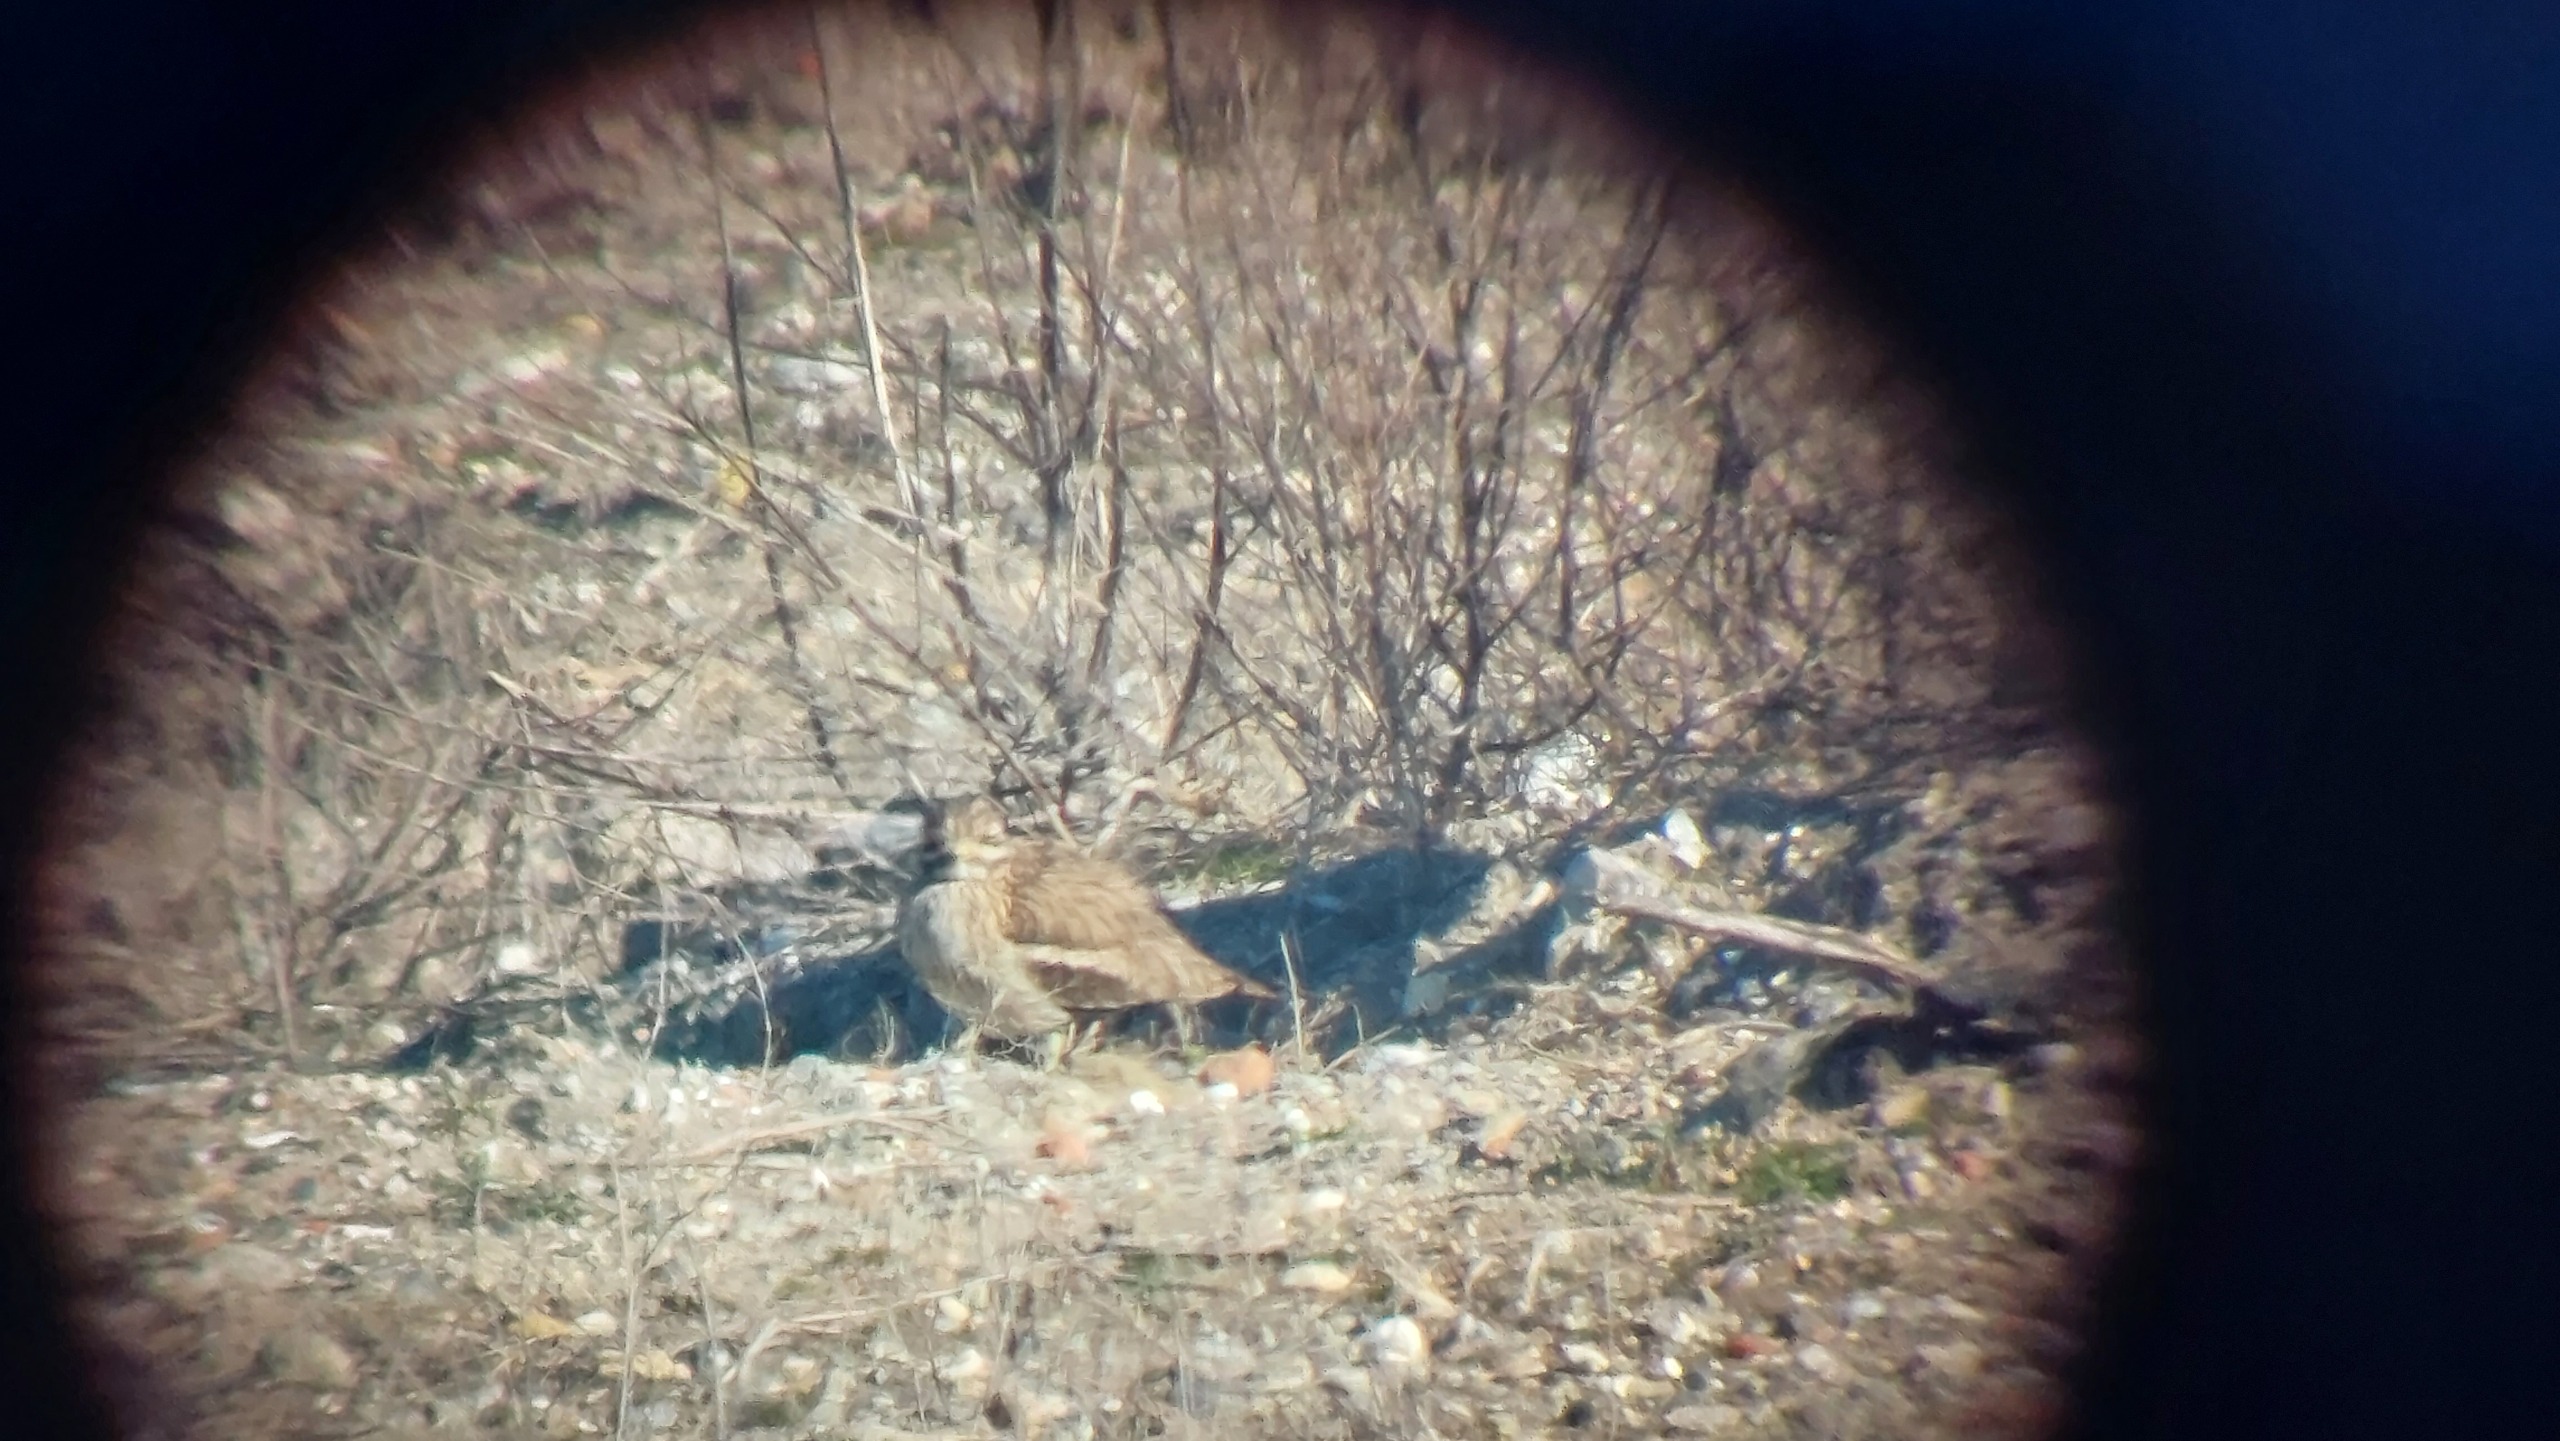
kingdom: Animalia
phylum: Chordata
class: Aves
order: Charadriiformes
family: Burhinidae
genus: Burhinus
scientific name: Burhinus oedicnemus
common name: Triel
